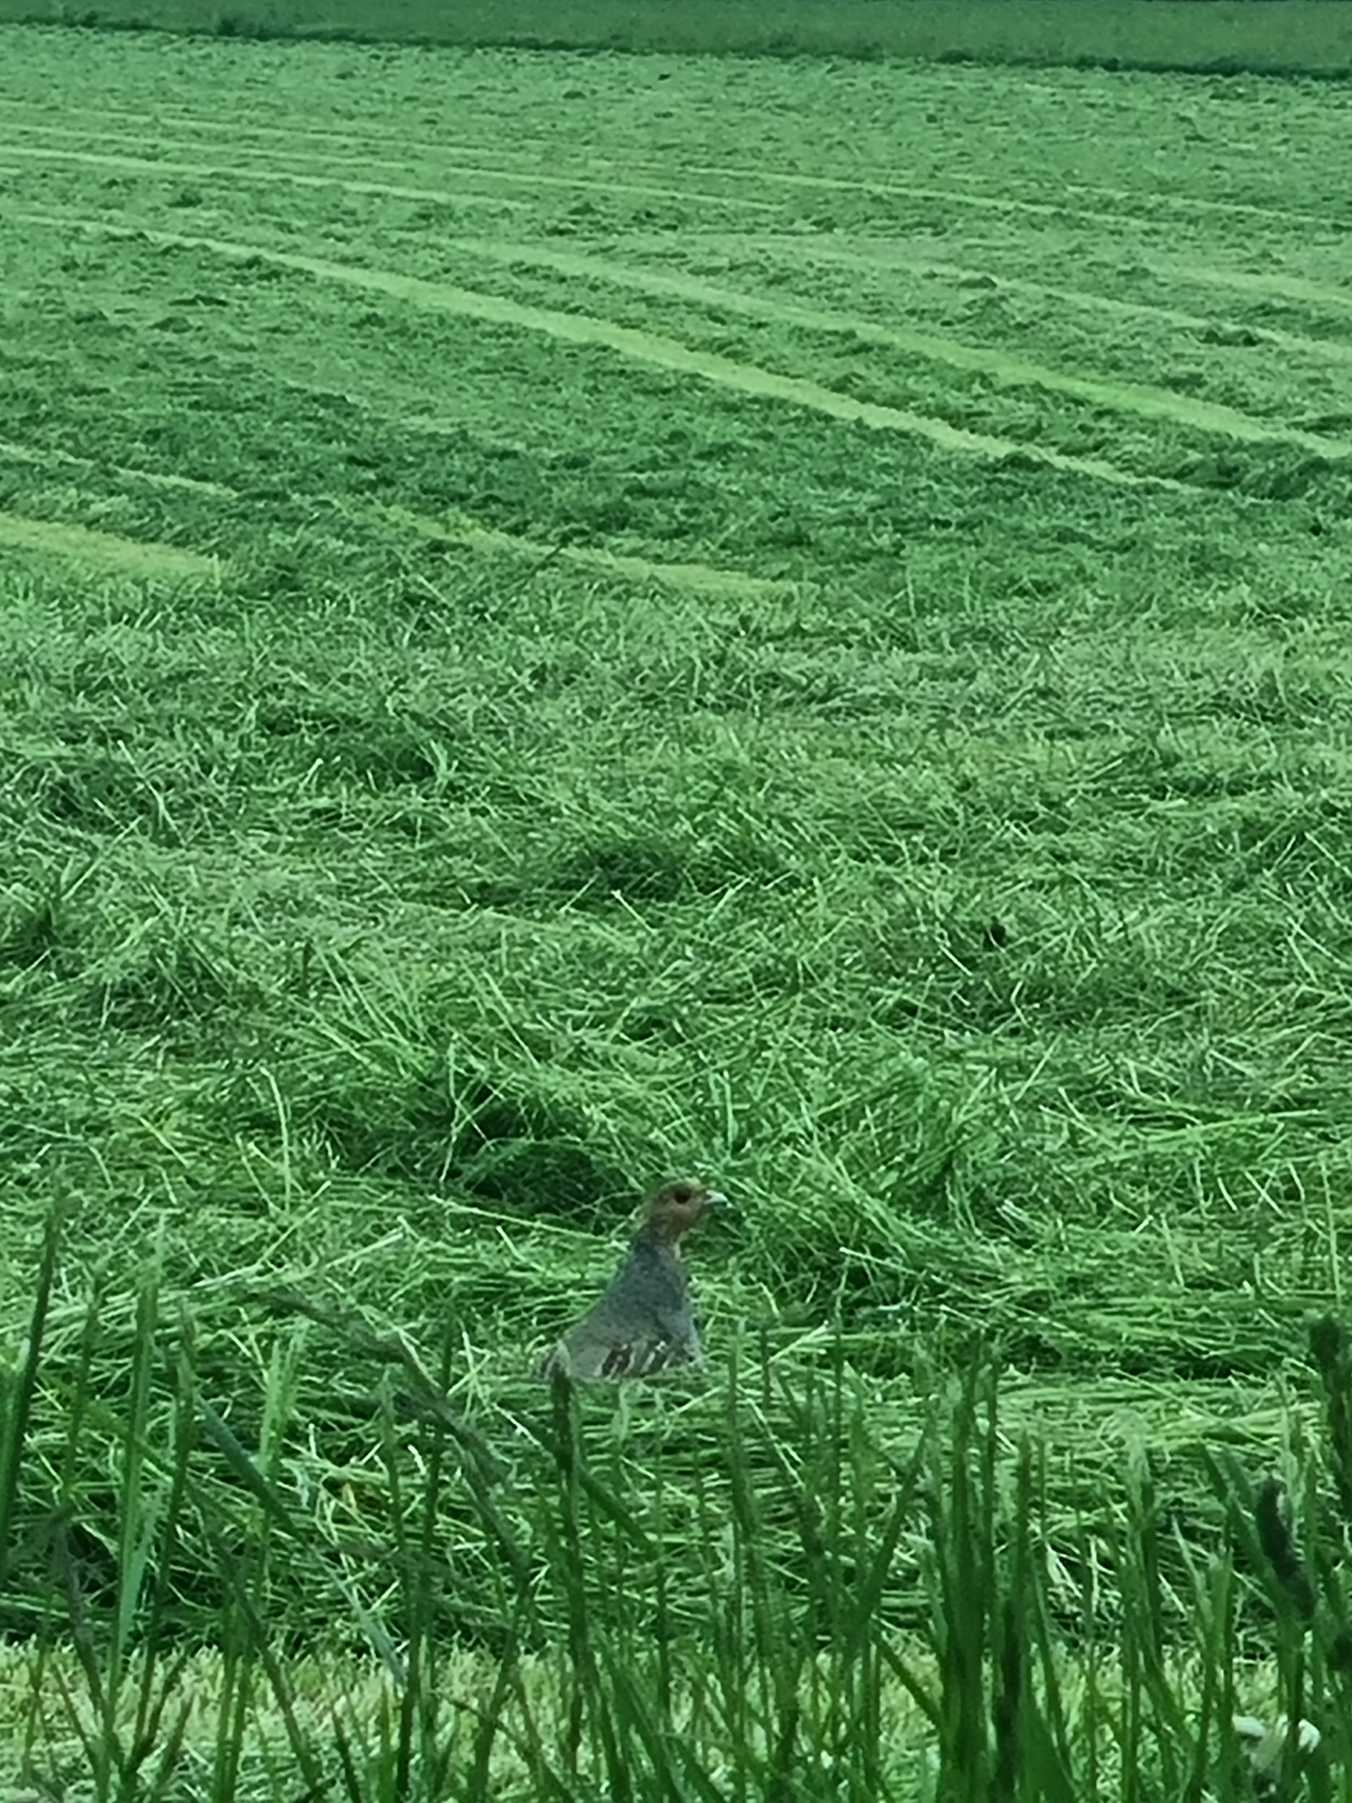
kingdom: Animalia
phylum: Chordata
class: Aves
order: Galliformes
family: Phasianidae
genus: Perdix
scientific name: Perdix perdix
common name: Agerhøne
